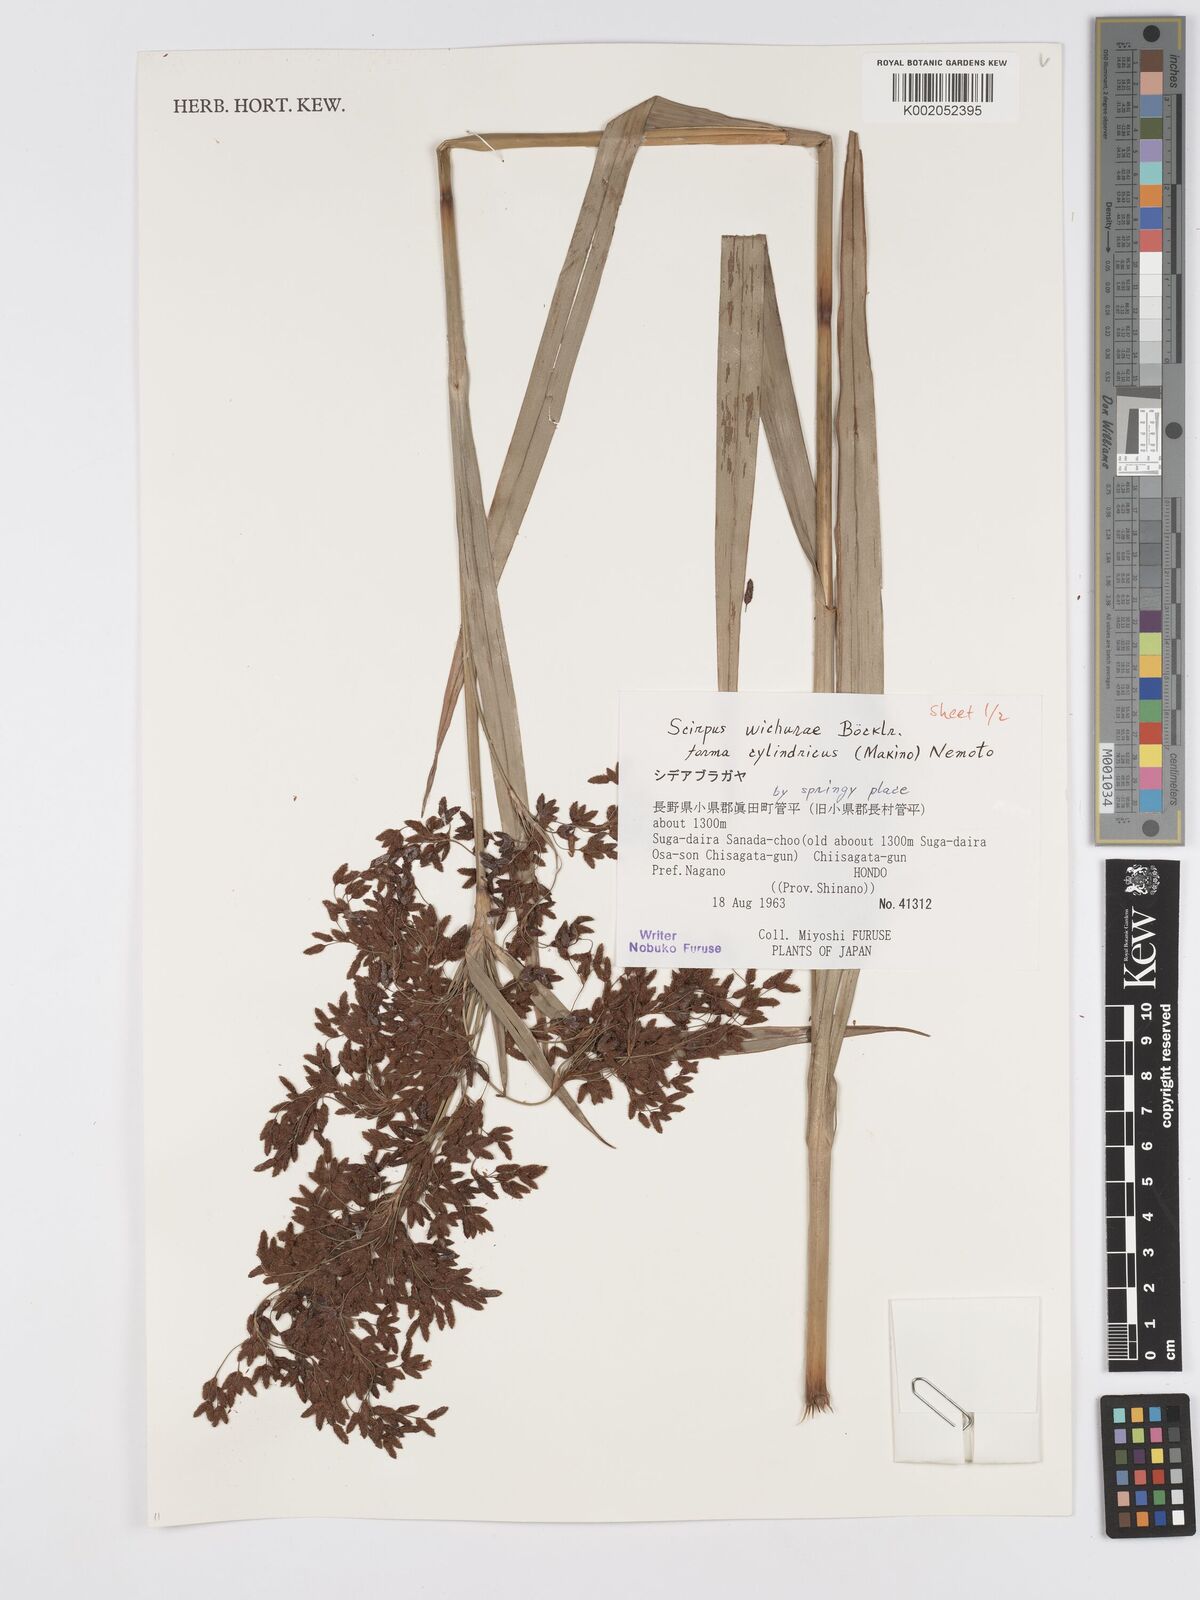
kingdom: Plantae
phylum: Tracheophyta
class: Liliopsida
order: Poales
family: Cyperaceae
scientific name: Cyperaceae
